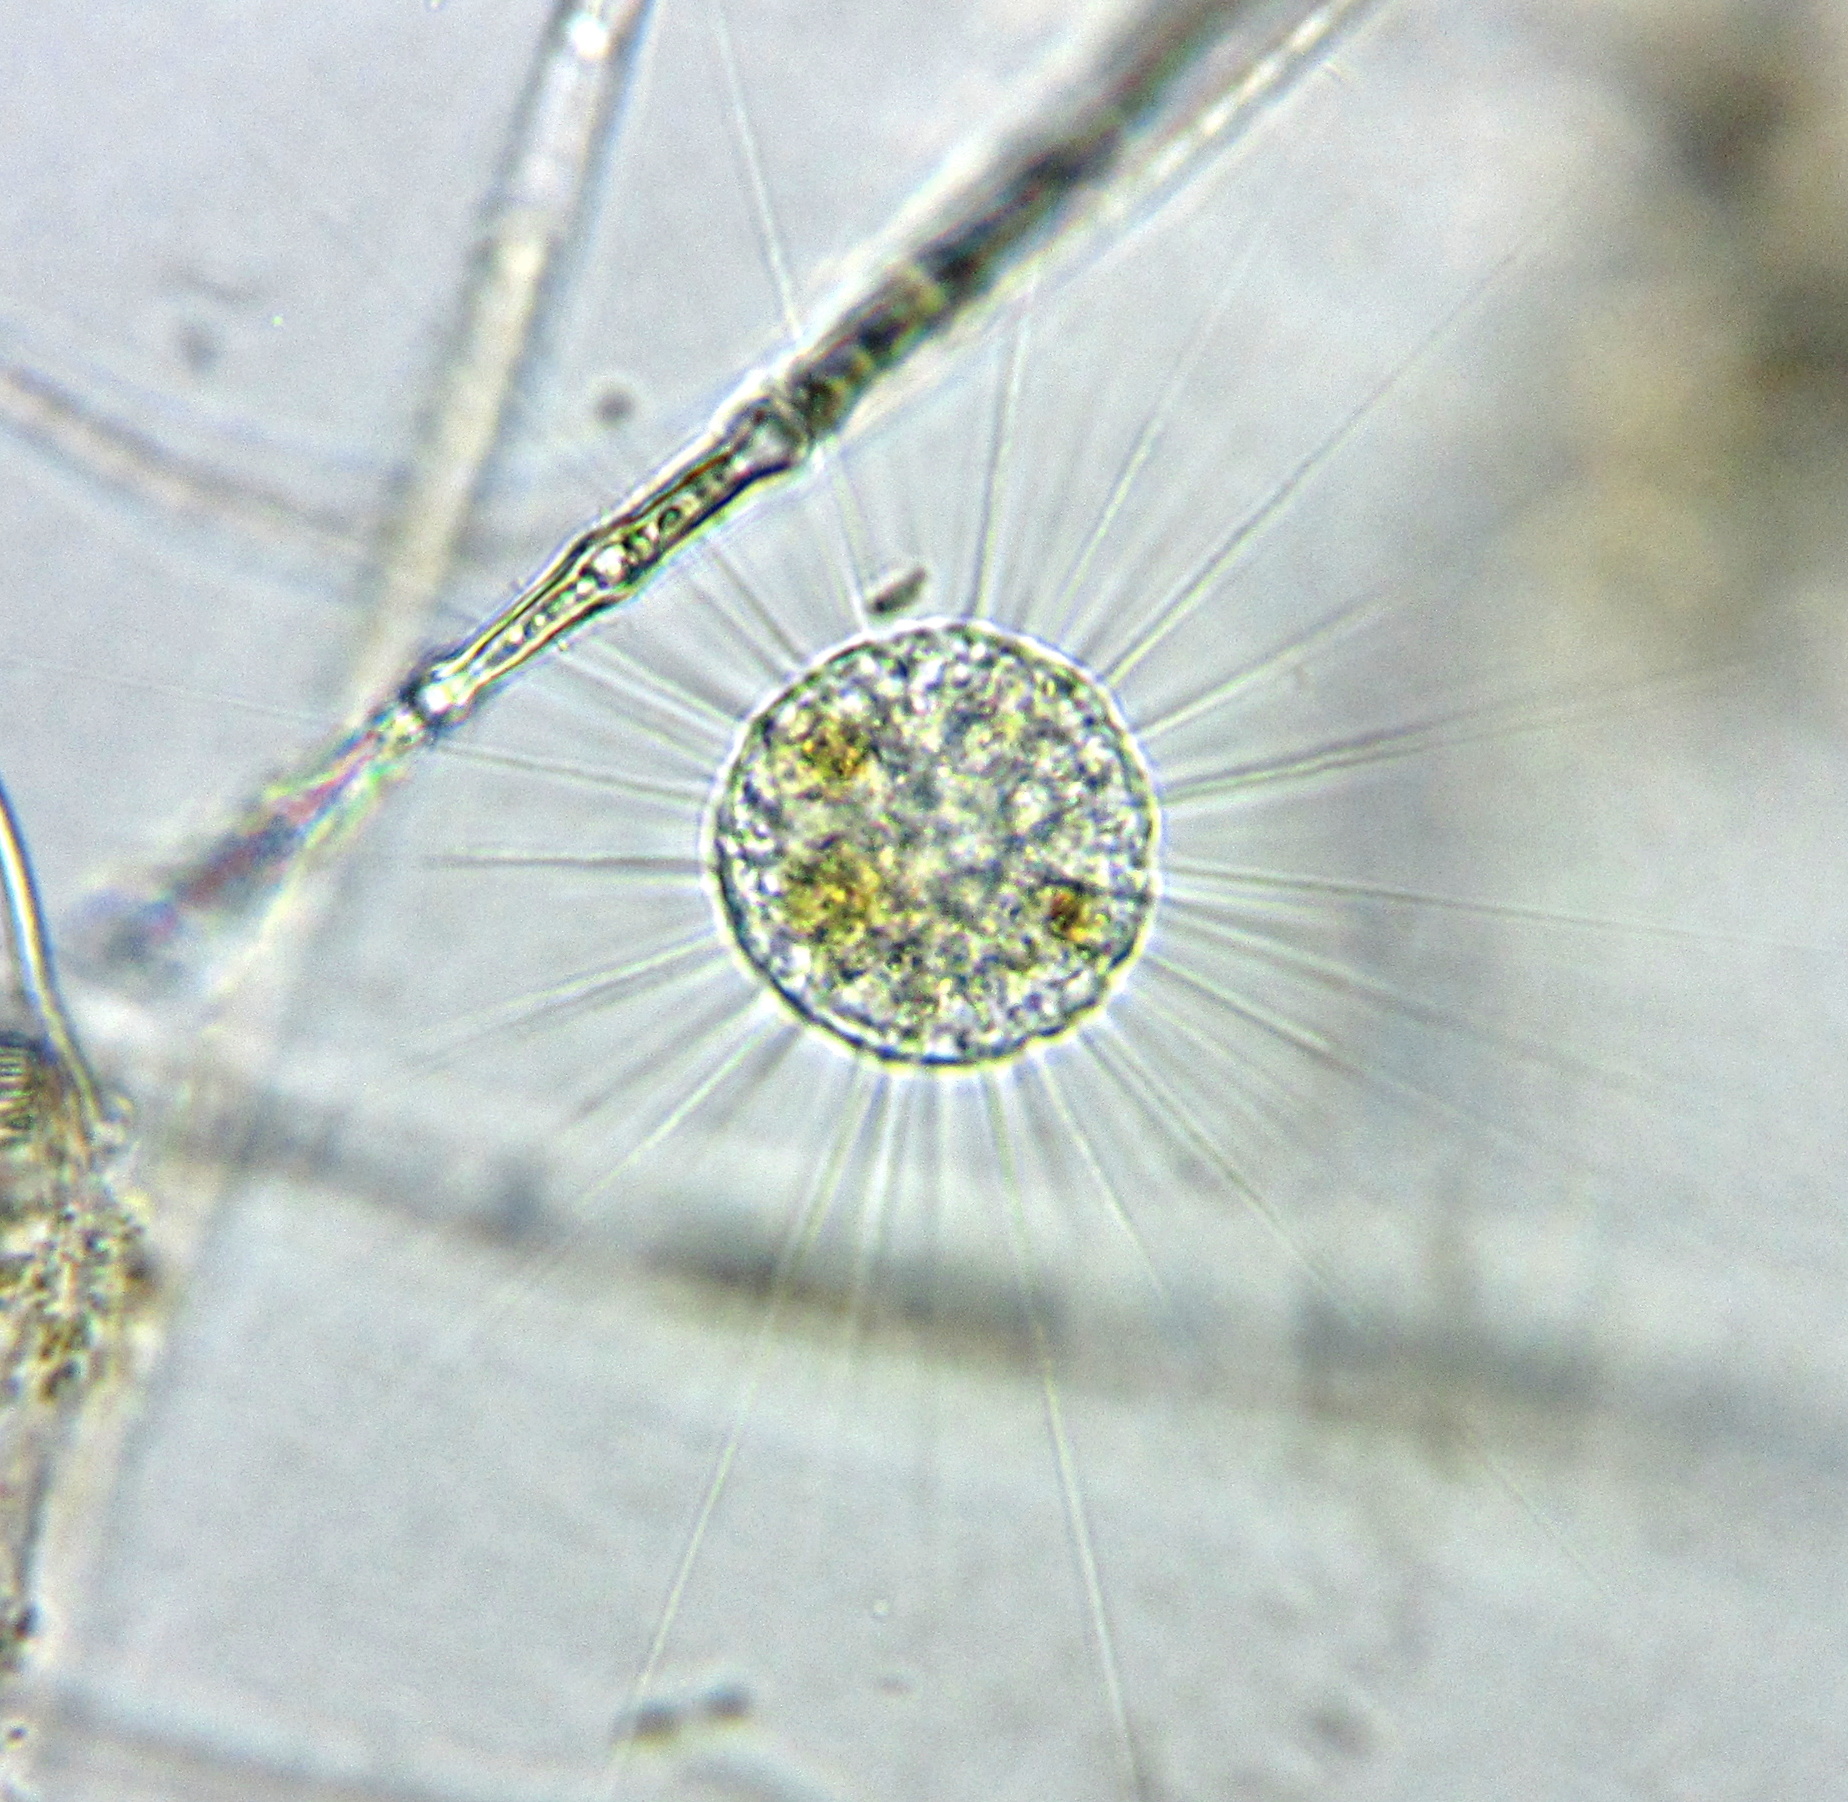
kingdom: Chromista
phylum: Ochrophyta
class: Raphidophyceae
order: Actinophryida
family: Actinophryidae
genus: Actinophrys
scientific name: Actinophrys sol
